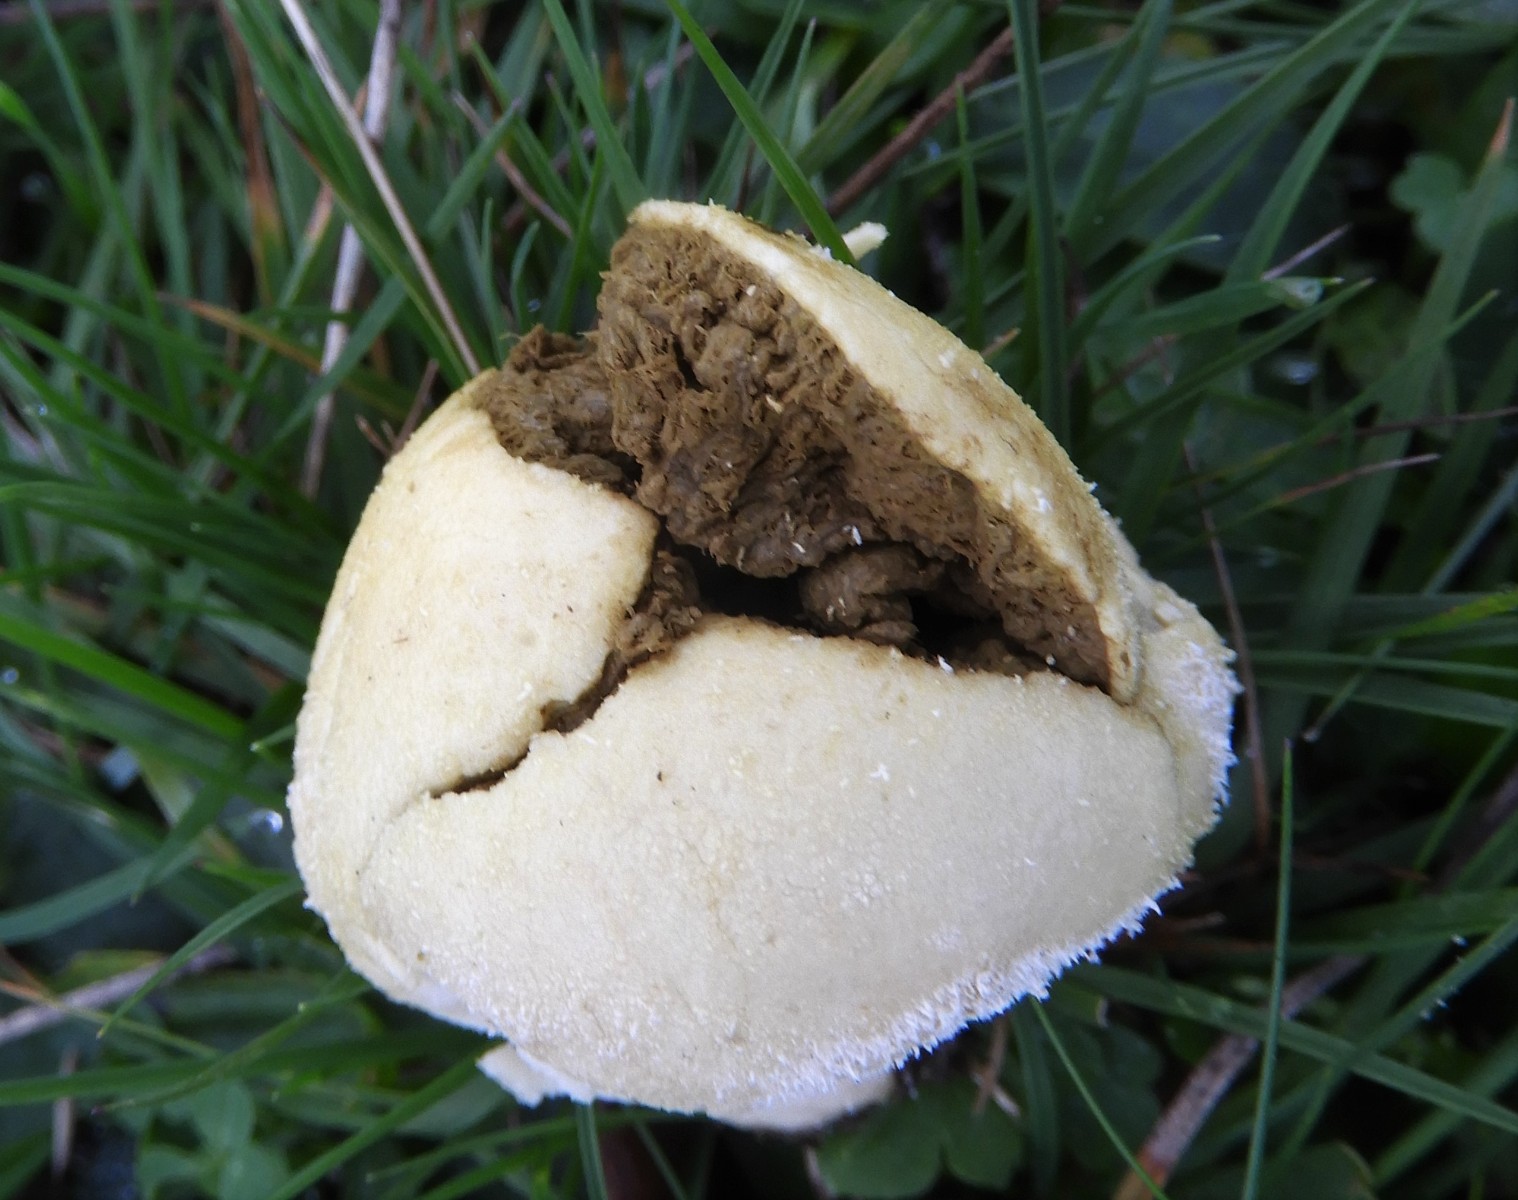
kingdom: Fungi
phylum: Basidiomycota
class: Agaricomycetes
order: Agaricales
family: Lycoperdaceae
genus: Lycoperdon
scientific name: Lycoperdon pratense
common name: flad støvbold
